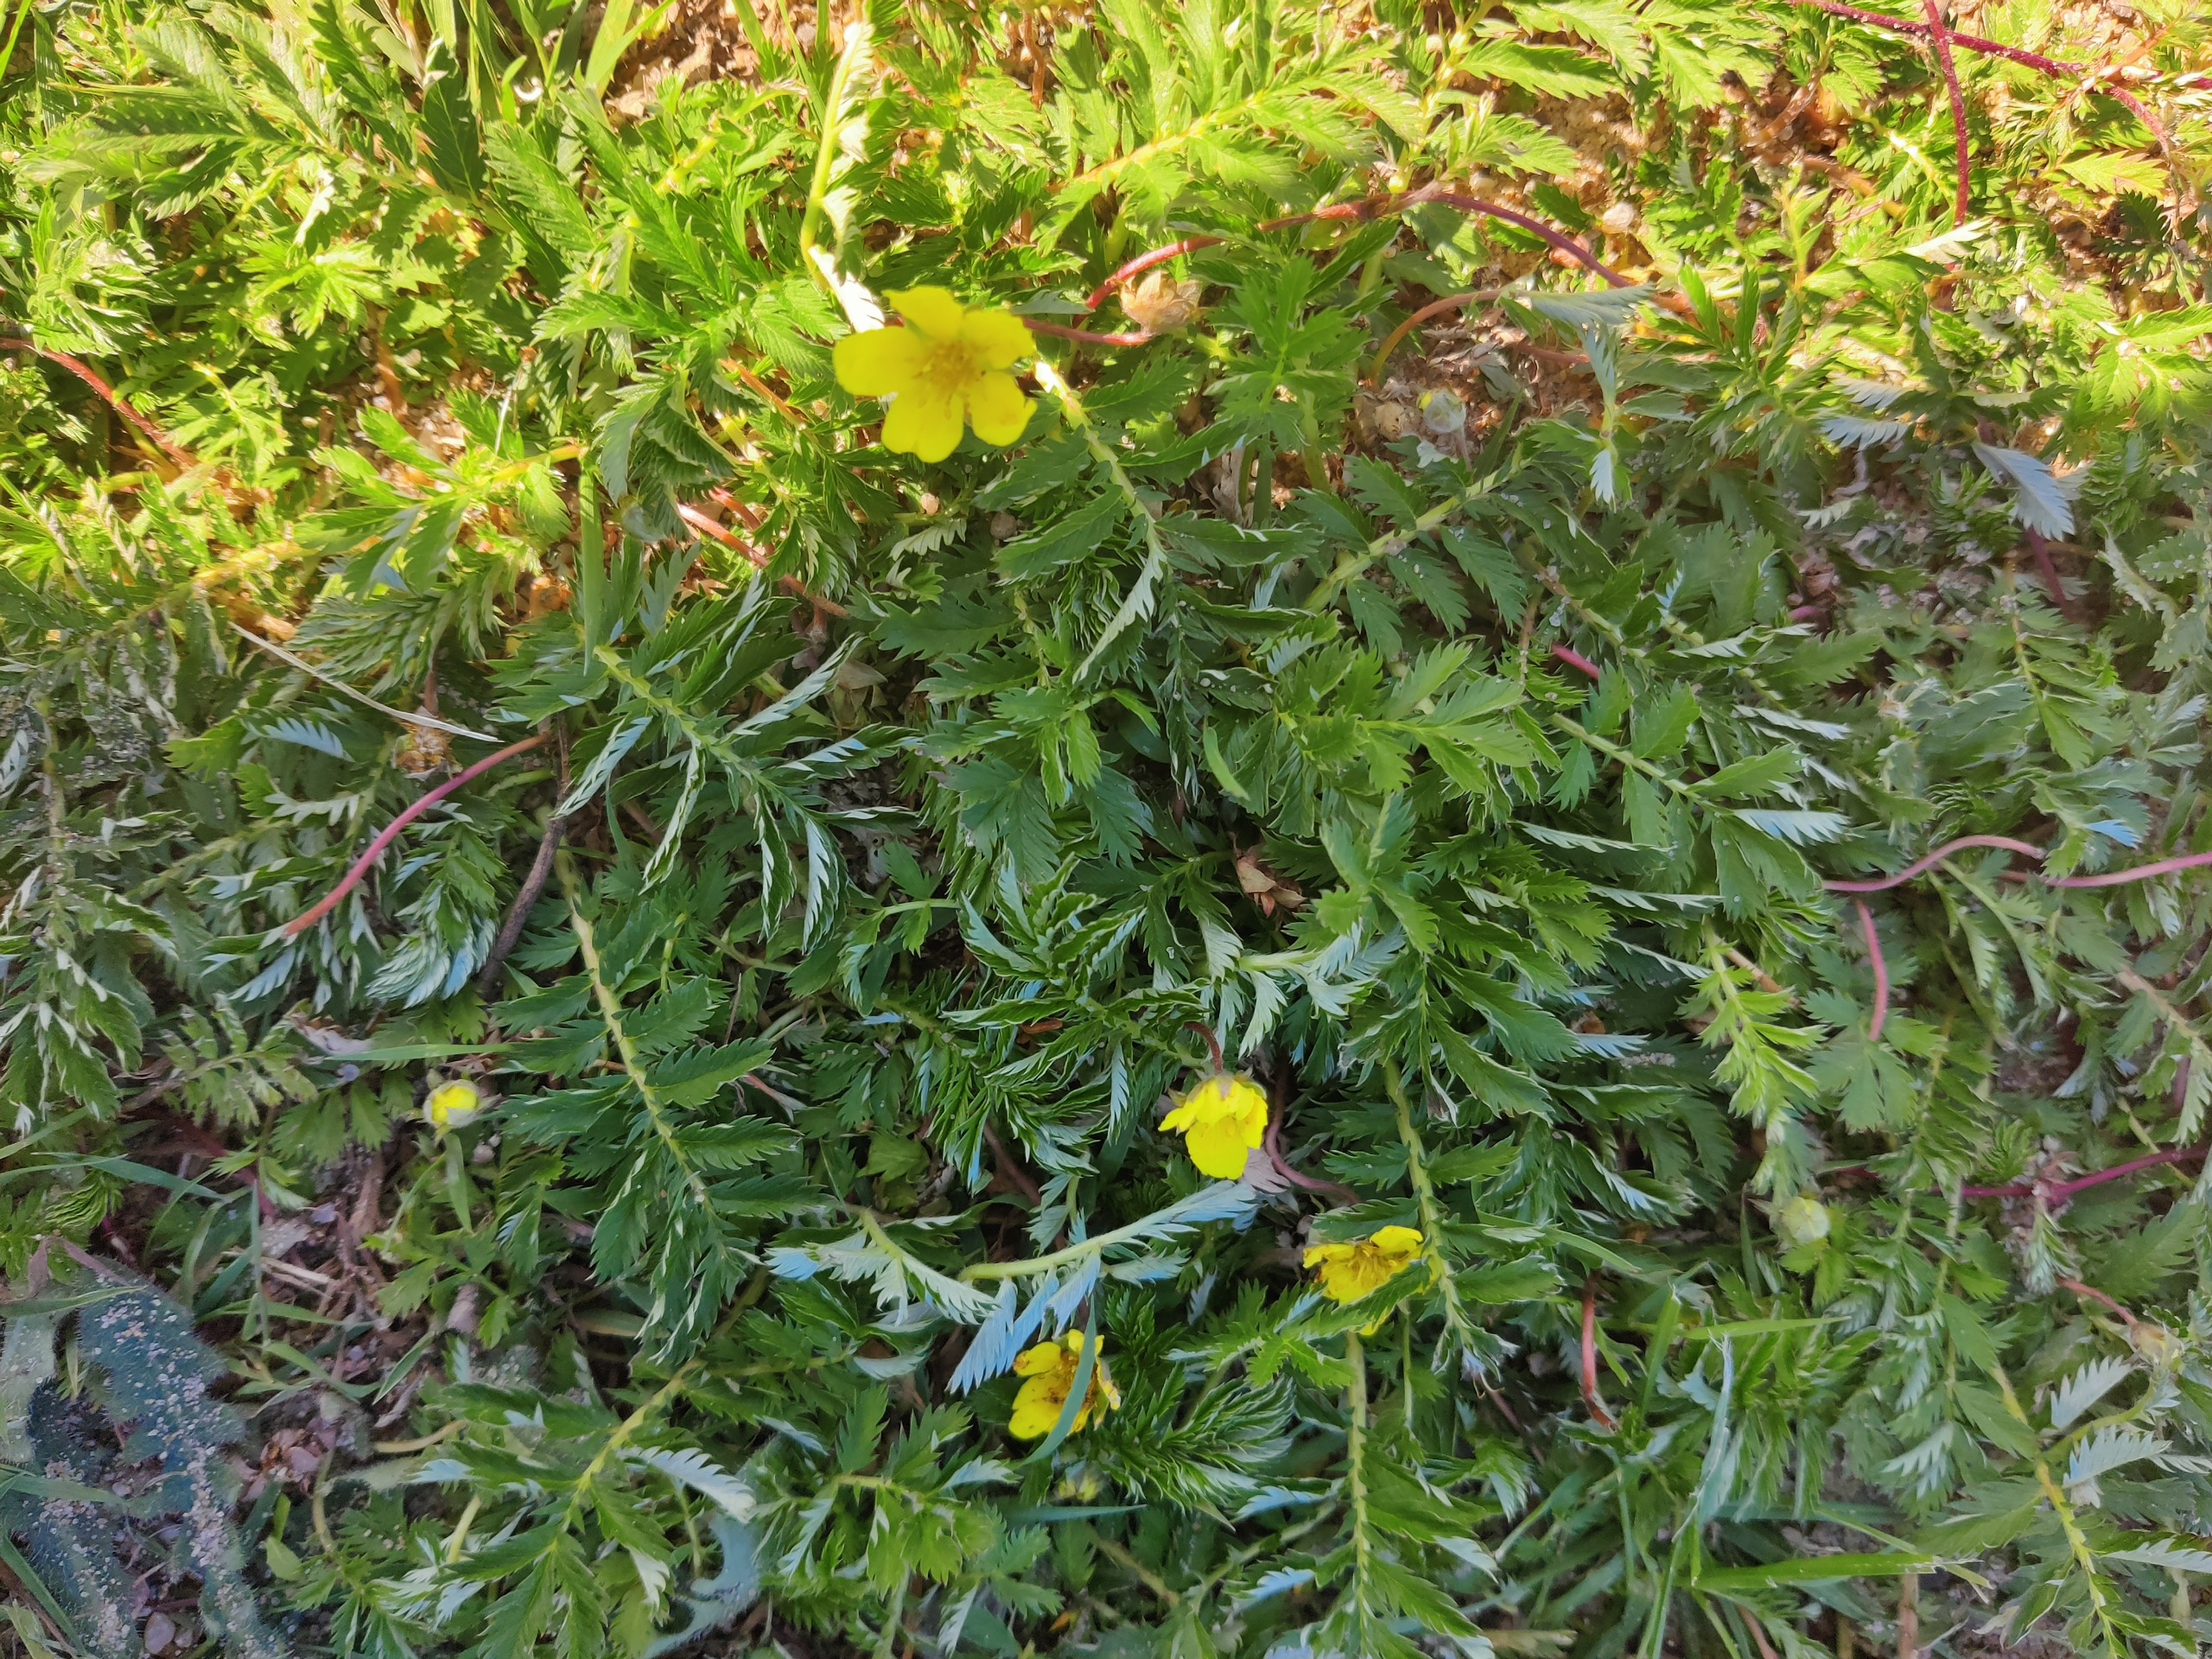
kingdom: Plantae
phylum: Tracheophyta
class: Magnoliopsida
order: Rosales
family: Rosaceae
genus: Argentina
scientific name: Argentina anserina
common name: Gåsepotentil
